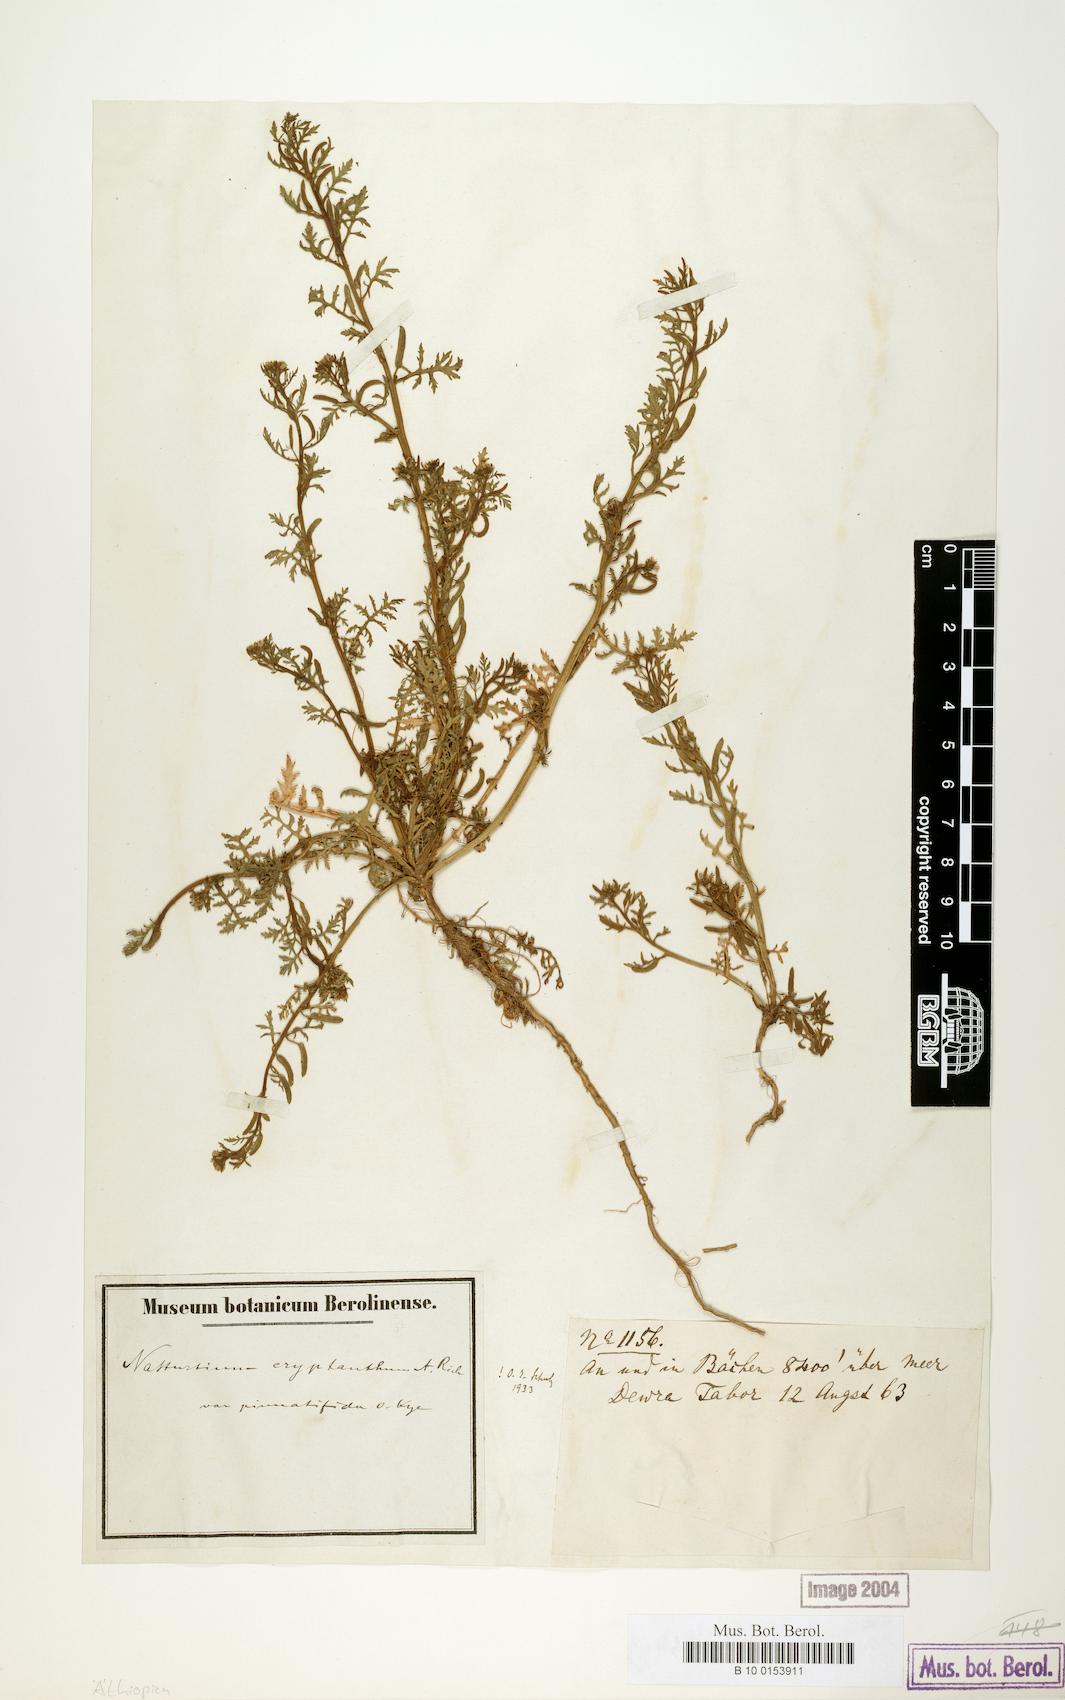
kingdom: Plantae
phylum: Tracheophyta
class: Magnoliopsida
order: Brassicales
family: Brassicaceae
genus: Rorippa
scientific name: Rorippa cryptantha
